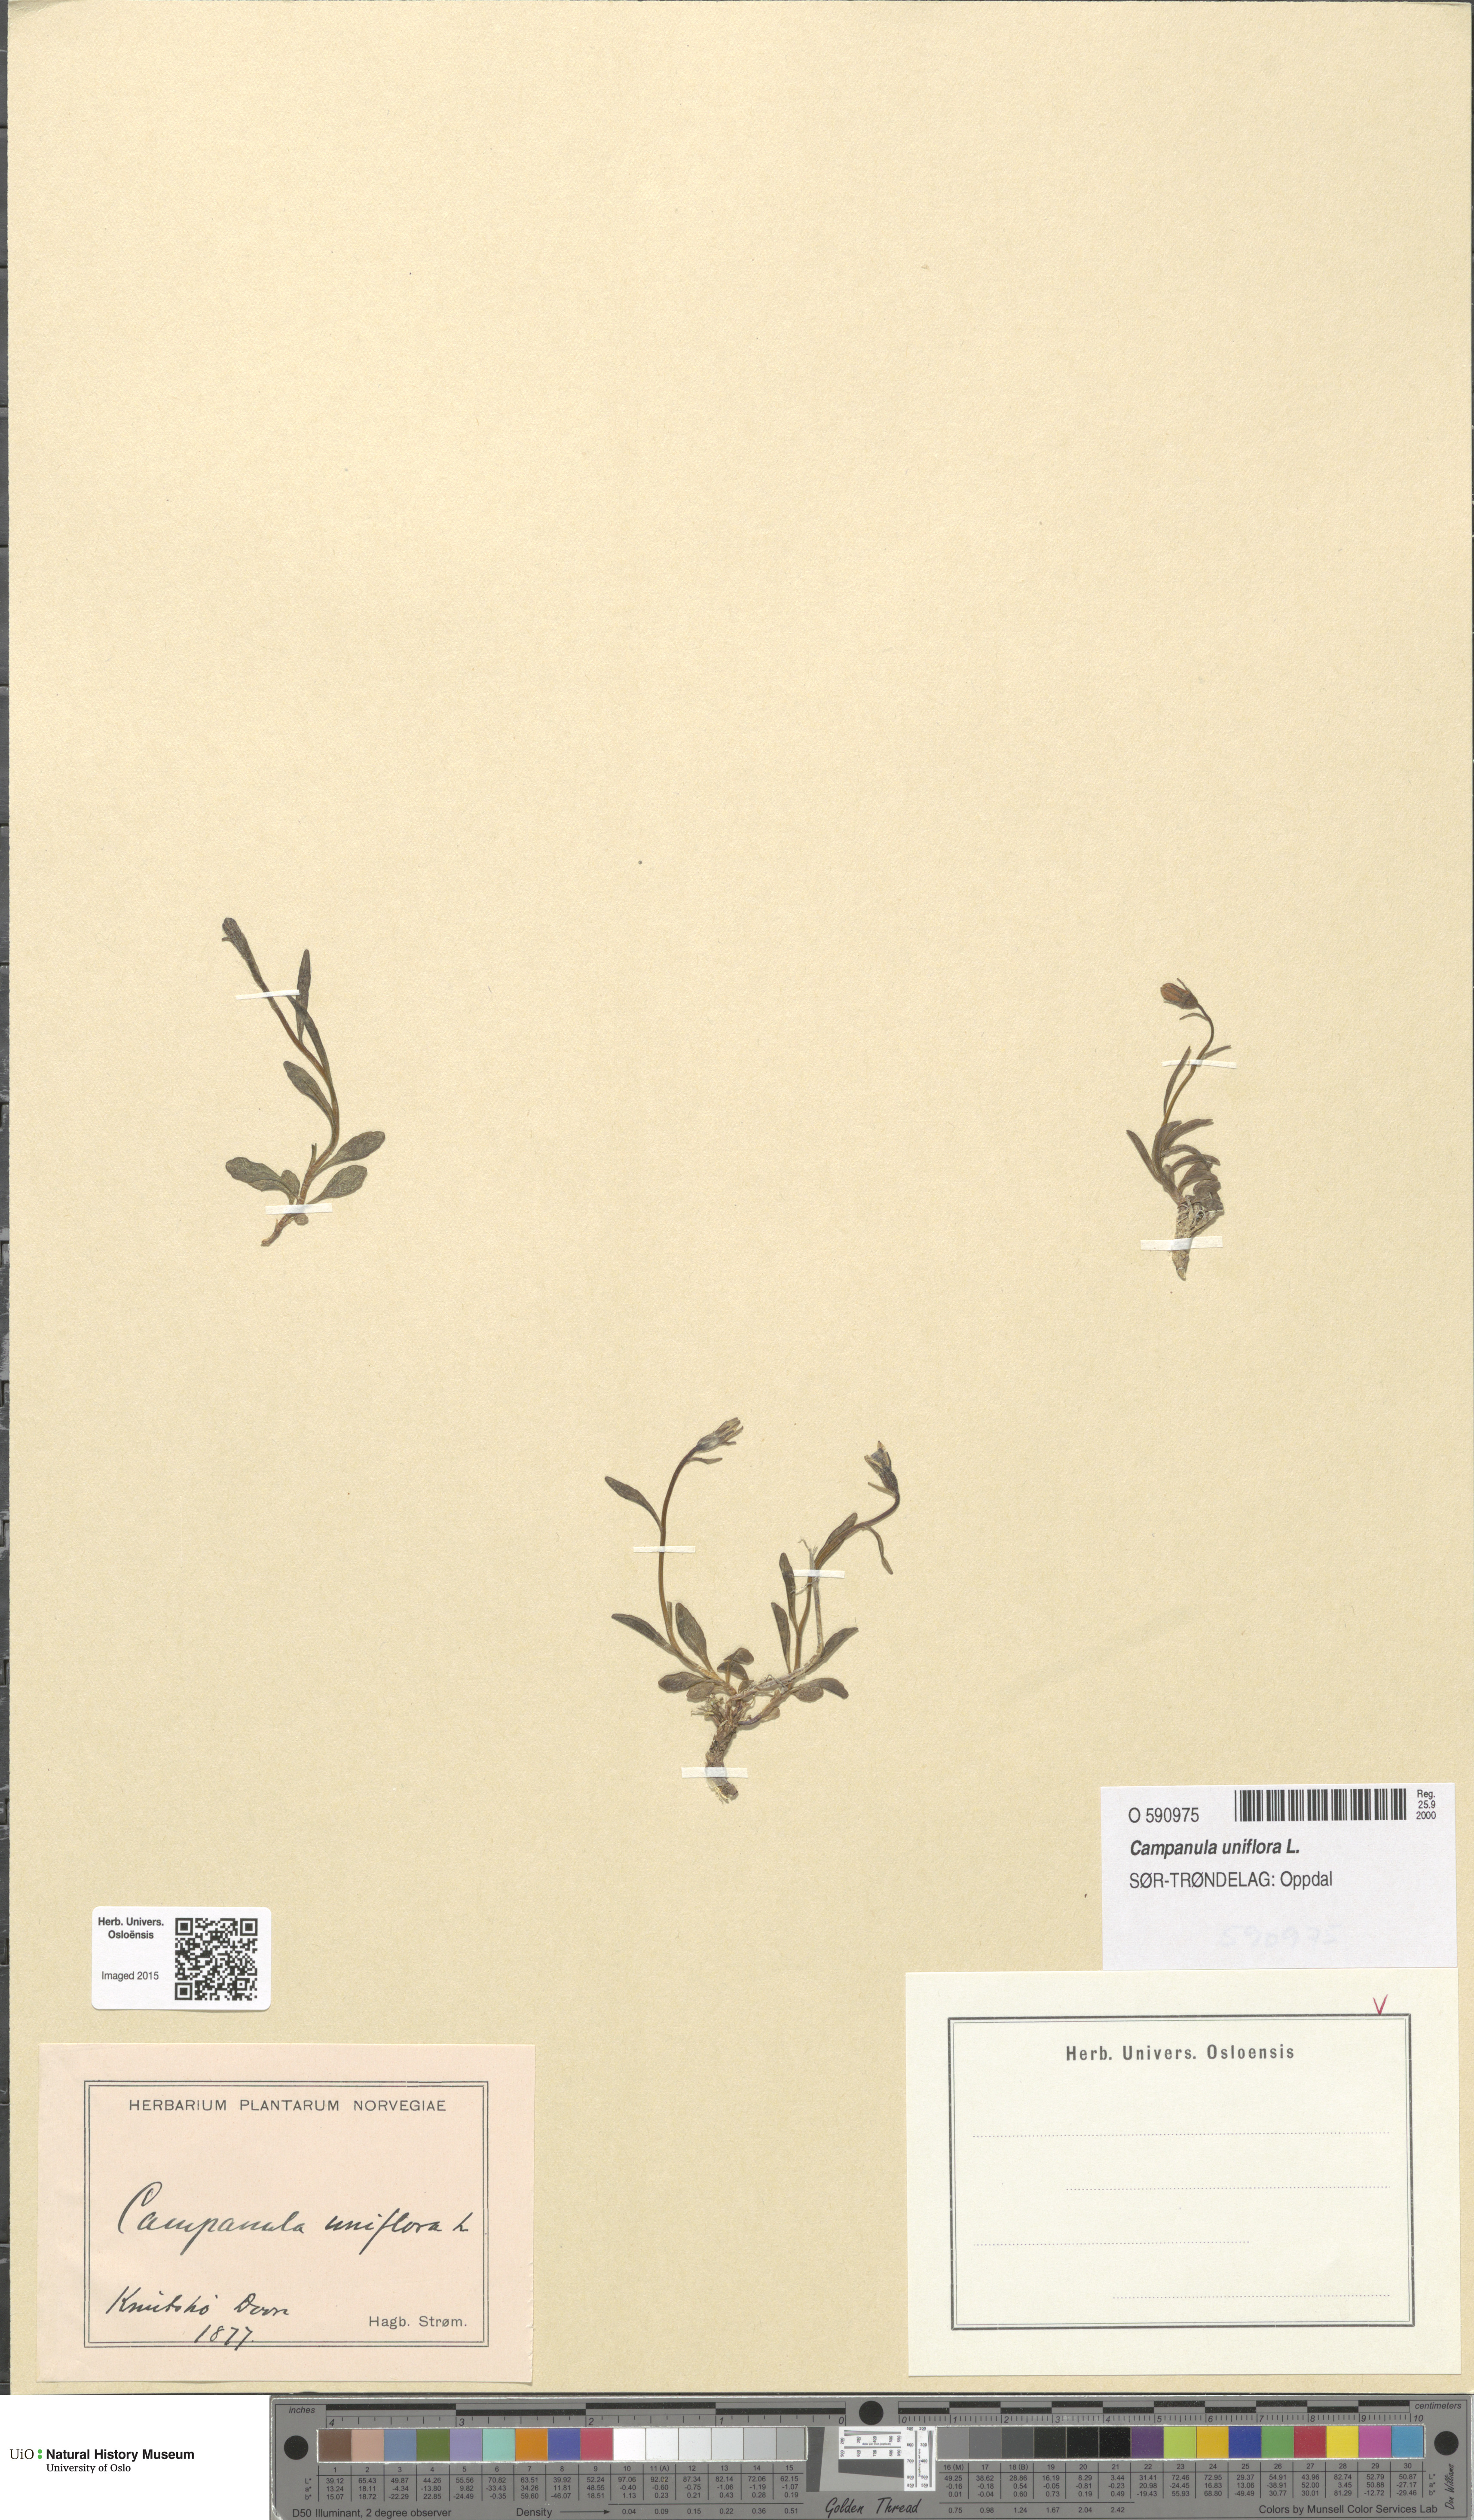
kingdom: Plantae
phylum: Tracheophyta
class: Magnoliopsida
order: Asterales
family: Campanulaceae
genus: Melanocalyx
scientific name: Melanocalyx uniflora
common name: Alpine harebell
